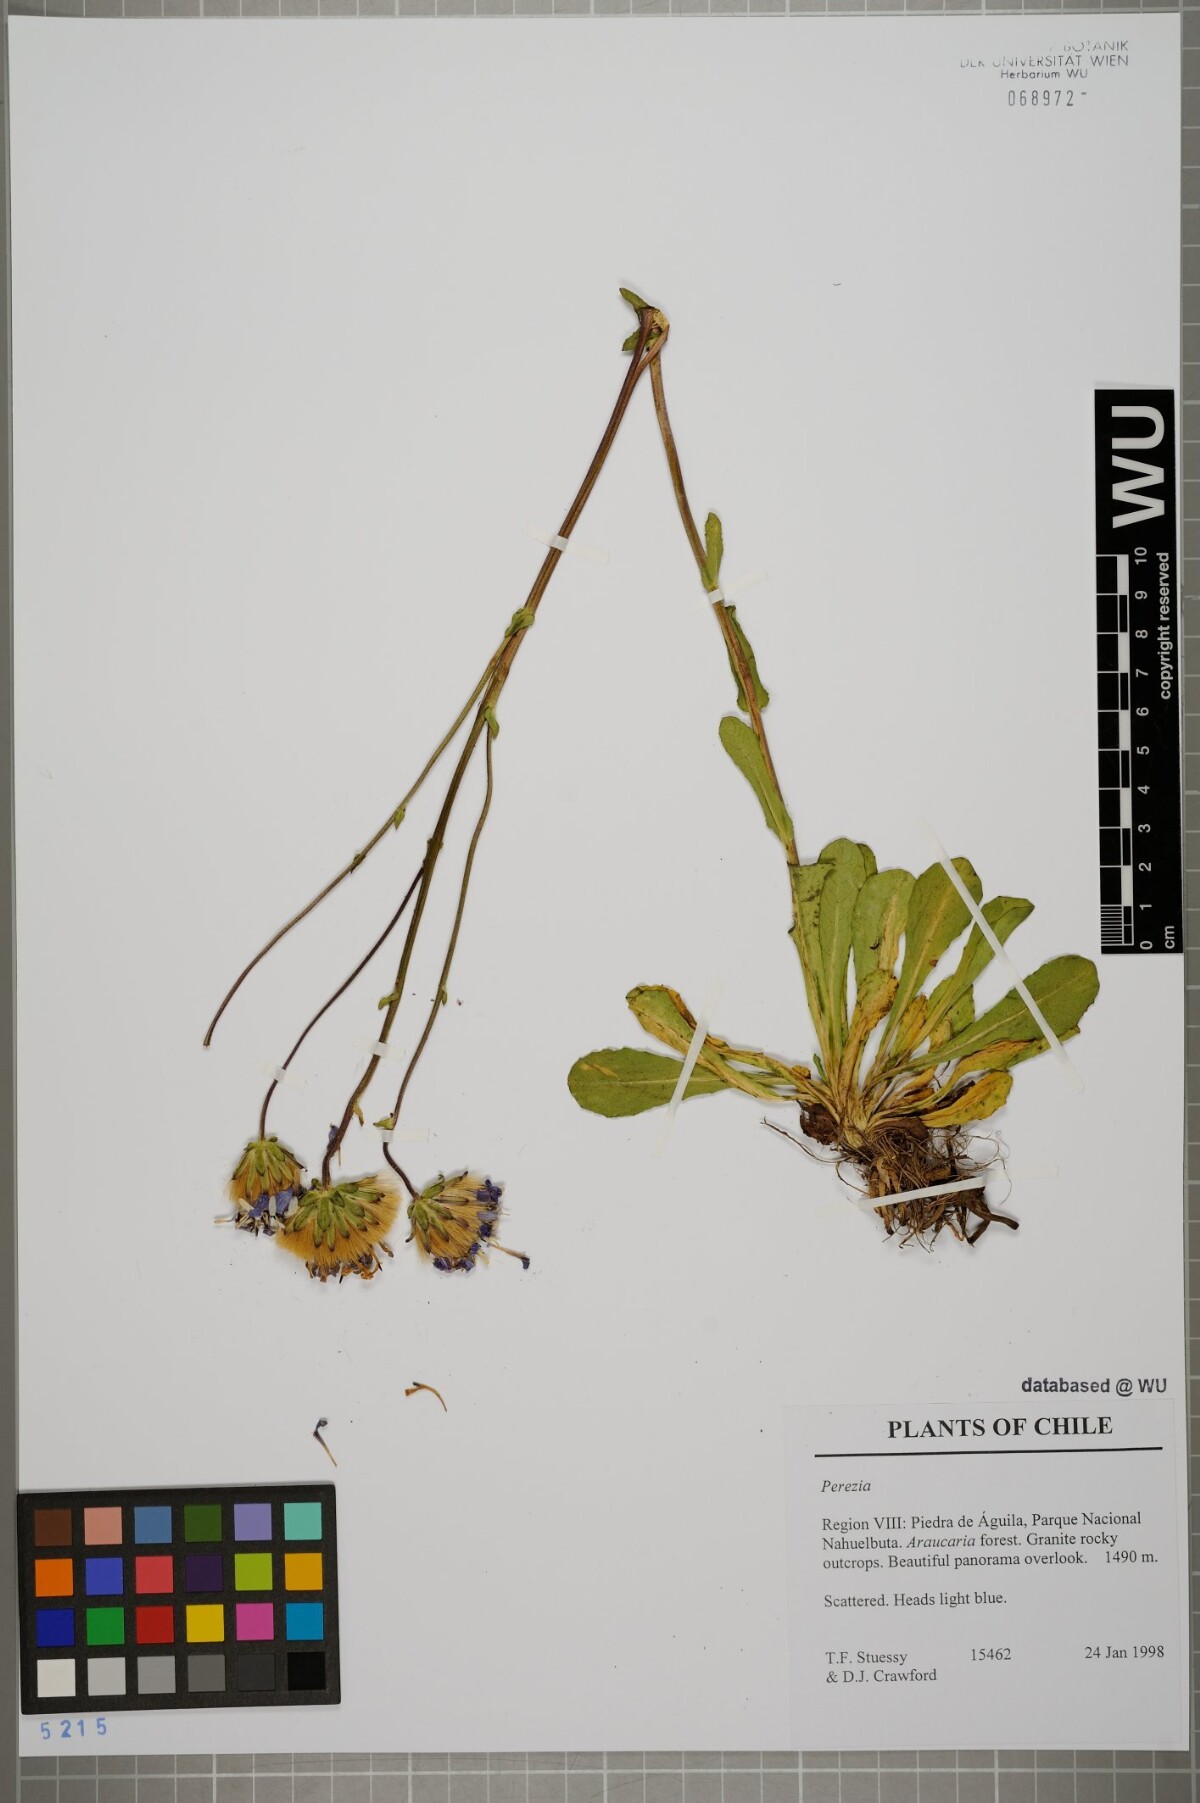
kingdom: Plantae
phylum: Tracheophyta
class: Magnoliopsida
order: Asterales
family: Asteraceae
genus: Perezia
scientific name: Perezia
